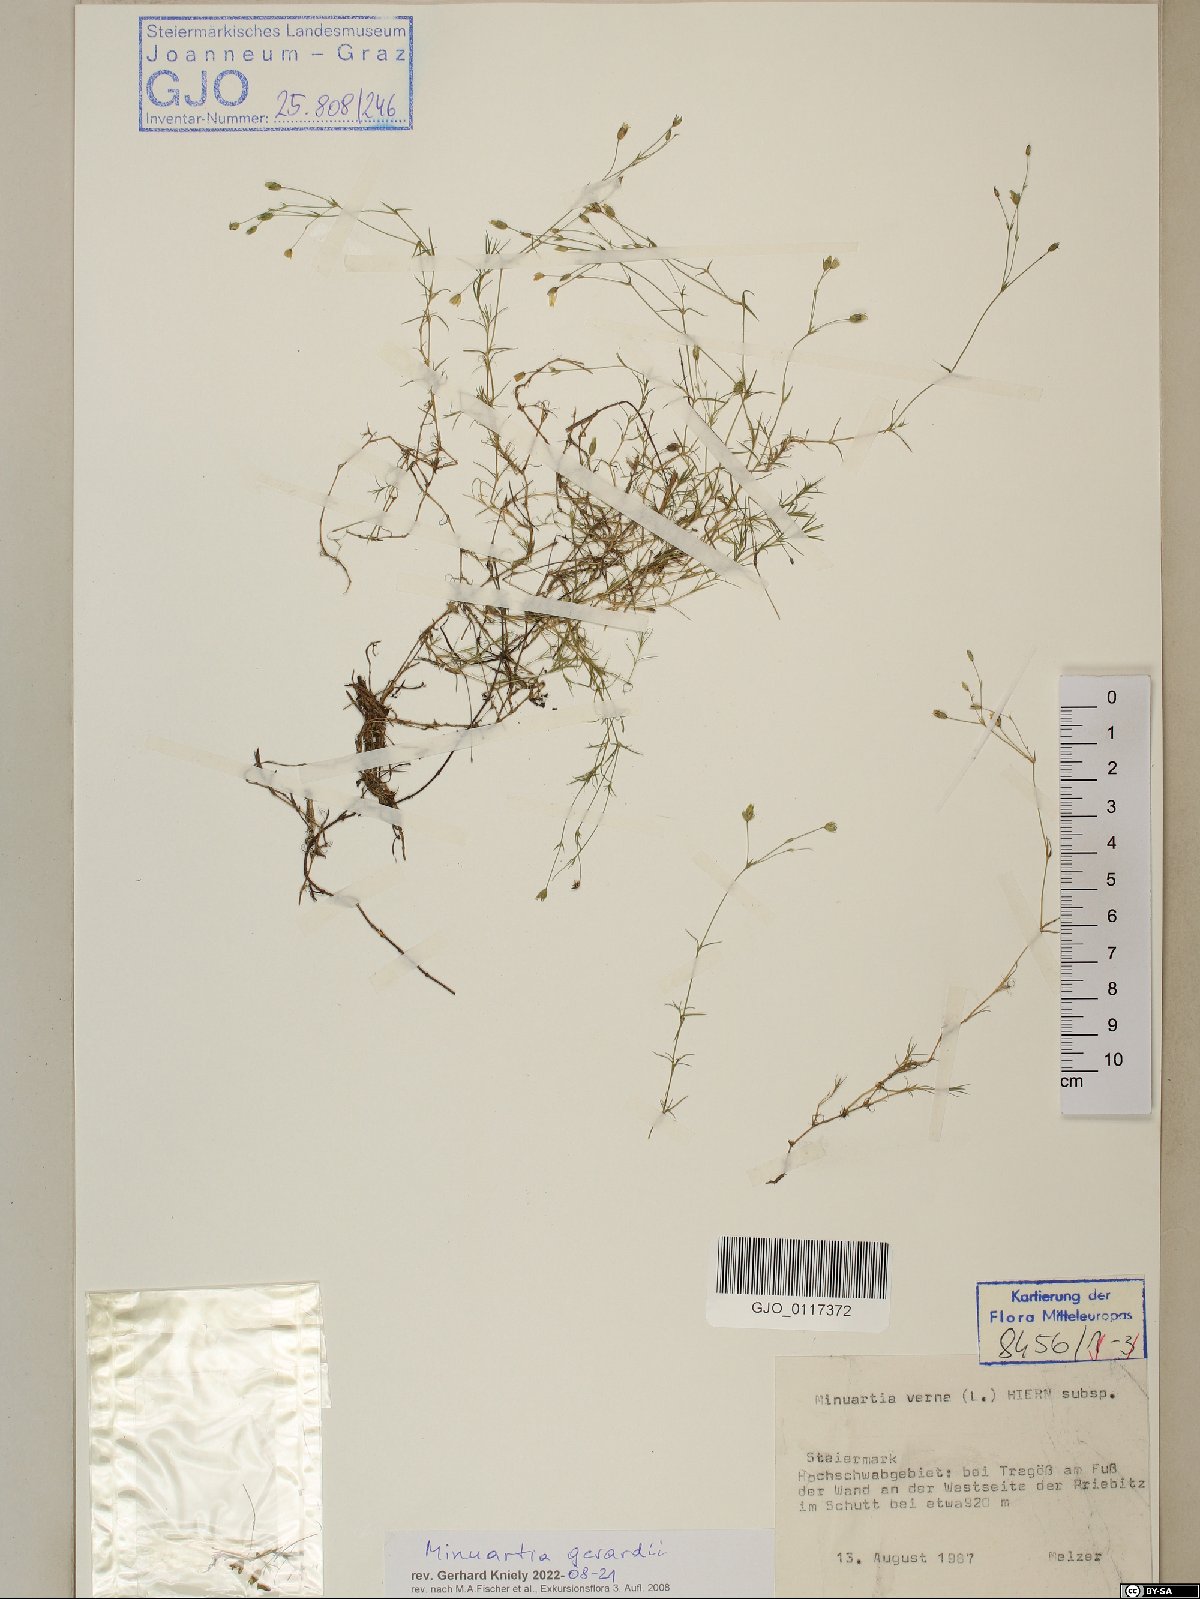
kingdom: Plantae
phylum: Tracheophyta
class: Magnoliopsida
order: Caryophyllales
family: Caryophyllaceae
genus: Sabulina
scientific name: Sabulina verna
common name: Spring sandwort
